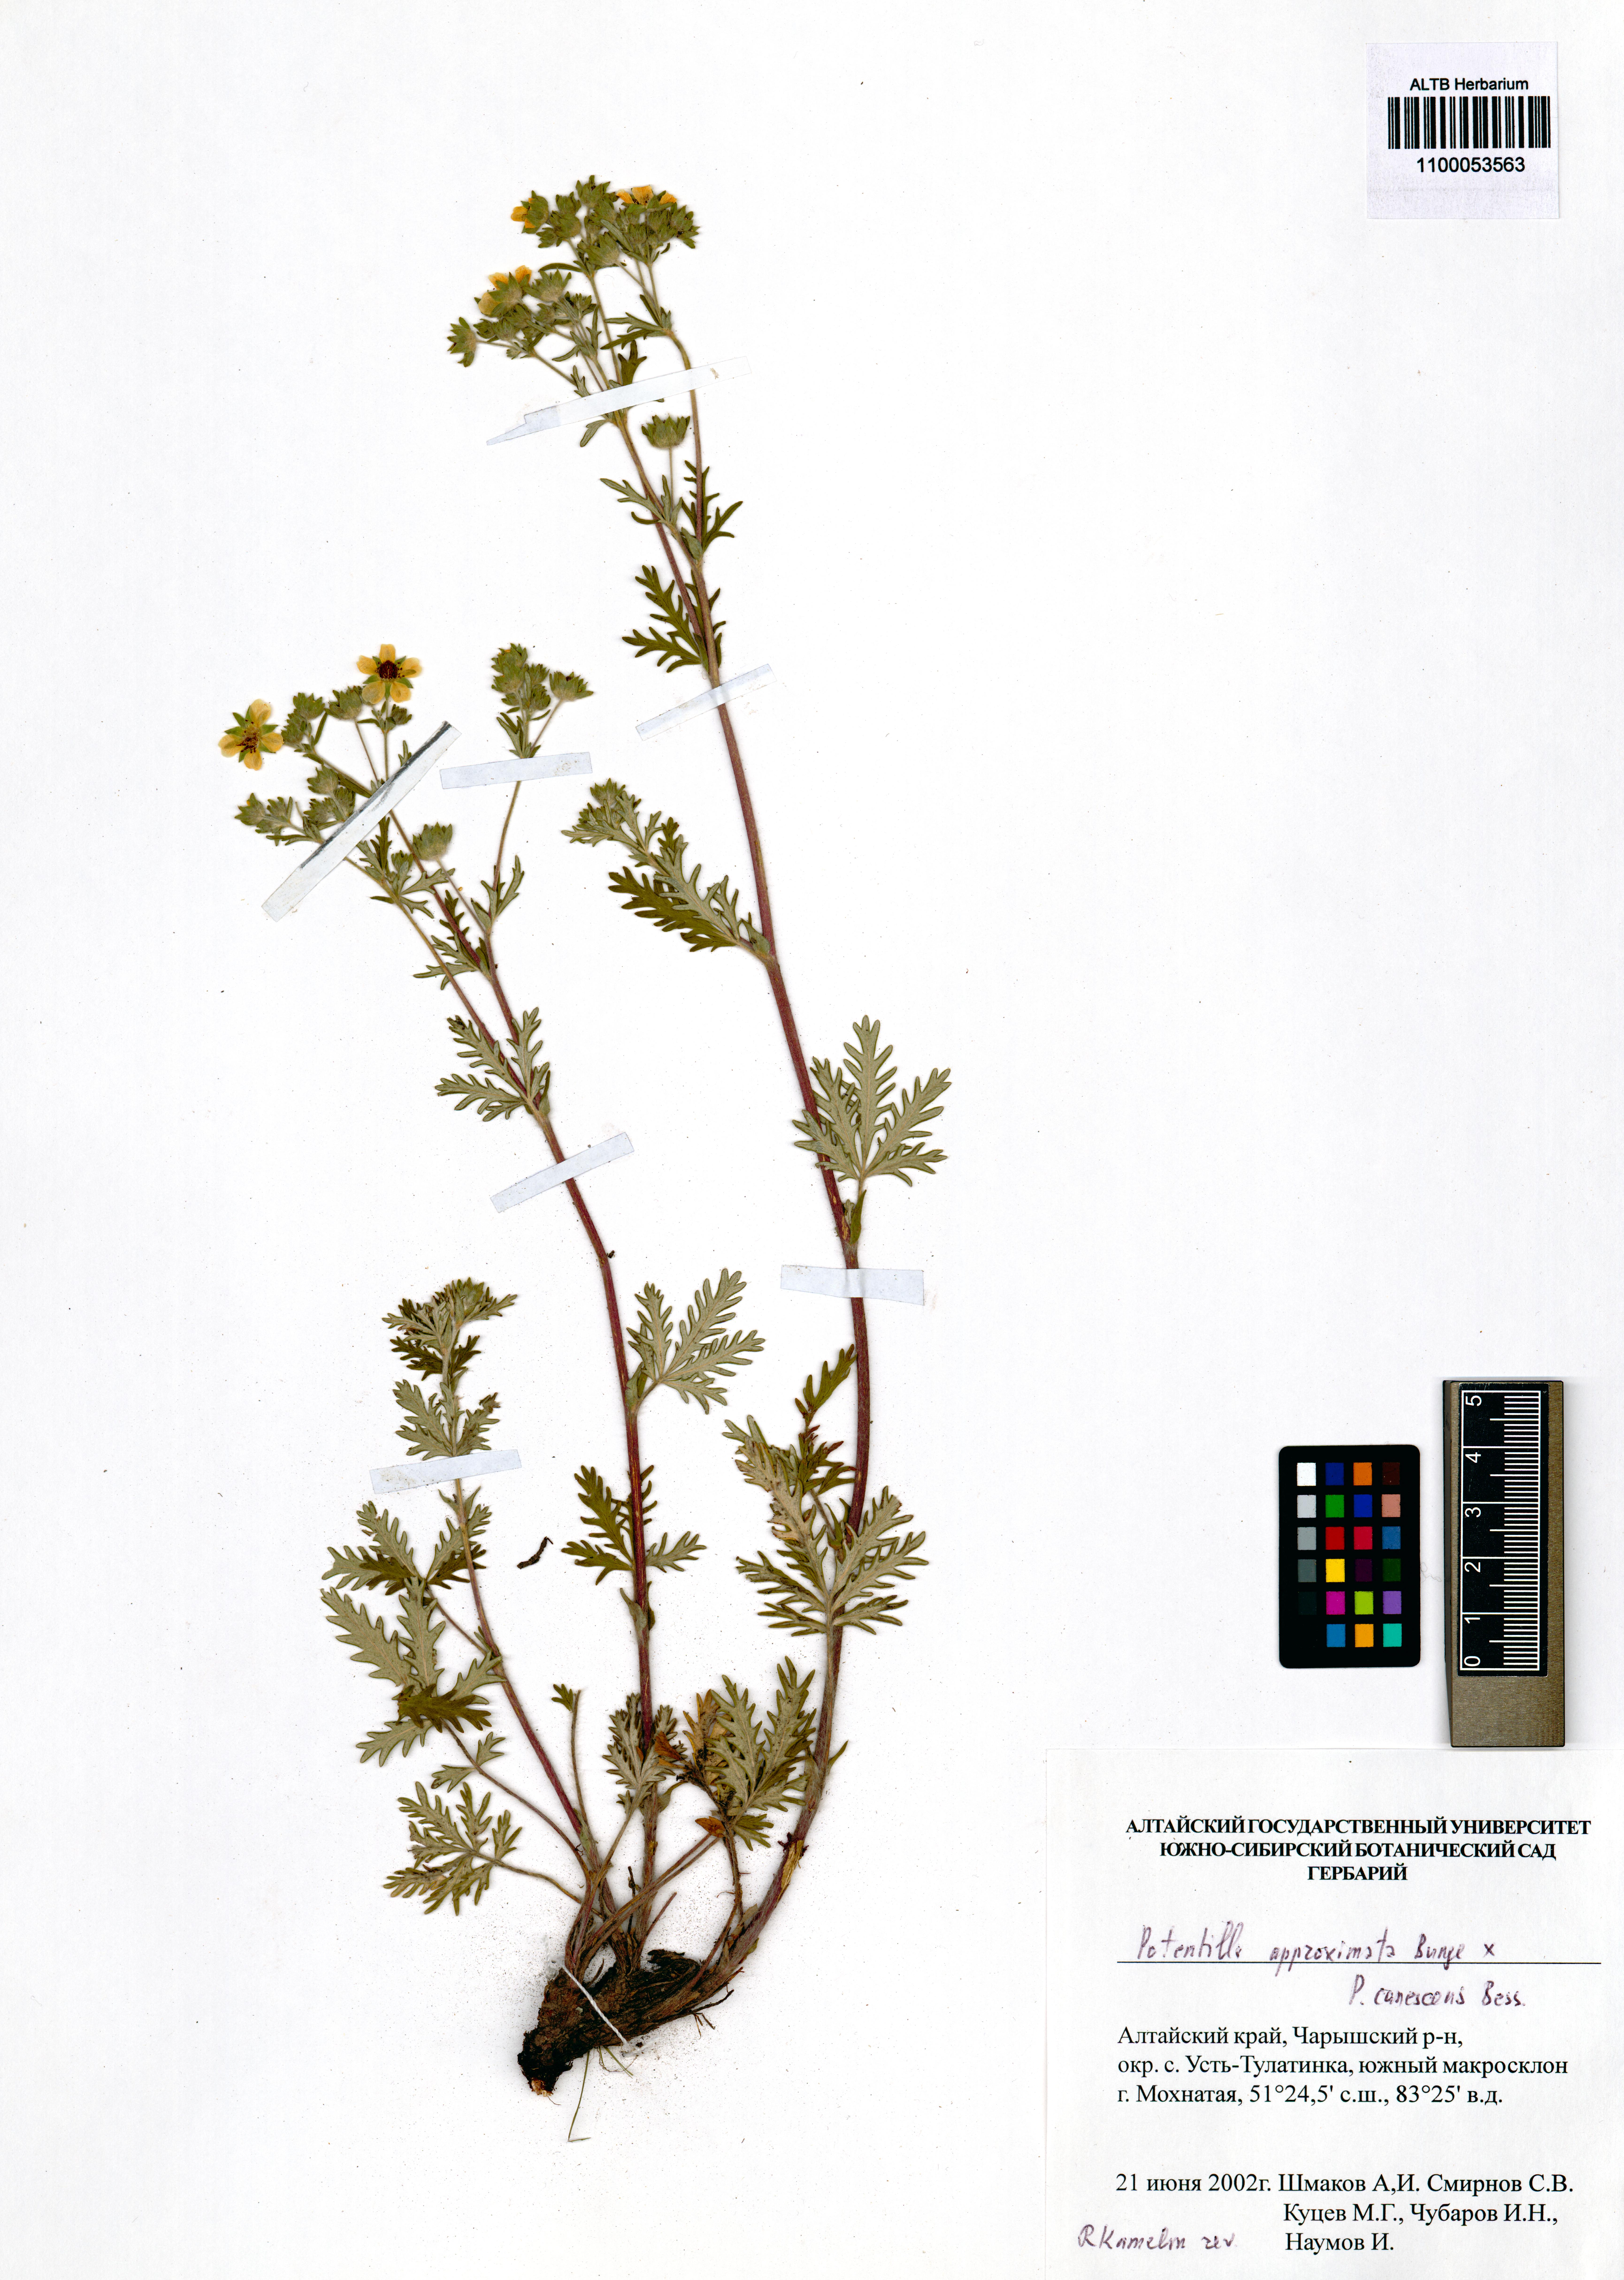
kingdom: Plantae
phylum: Tracheophyta
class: Magnoliopsida
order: Rosales
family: Rosaceae
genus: Potentilla
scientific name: Potentilla conferta
